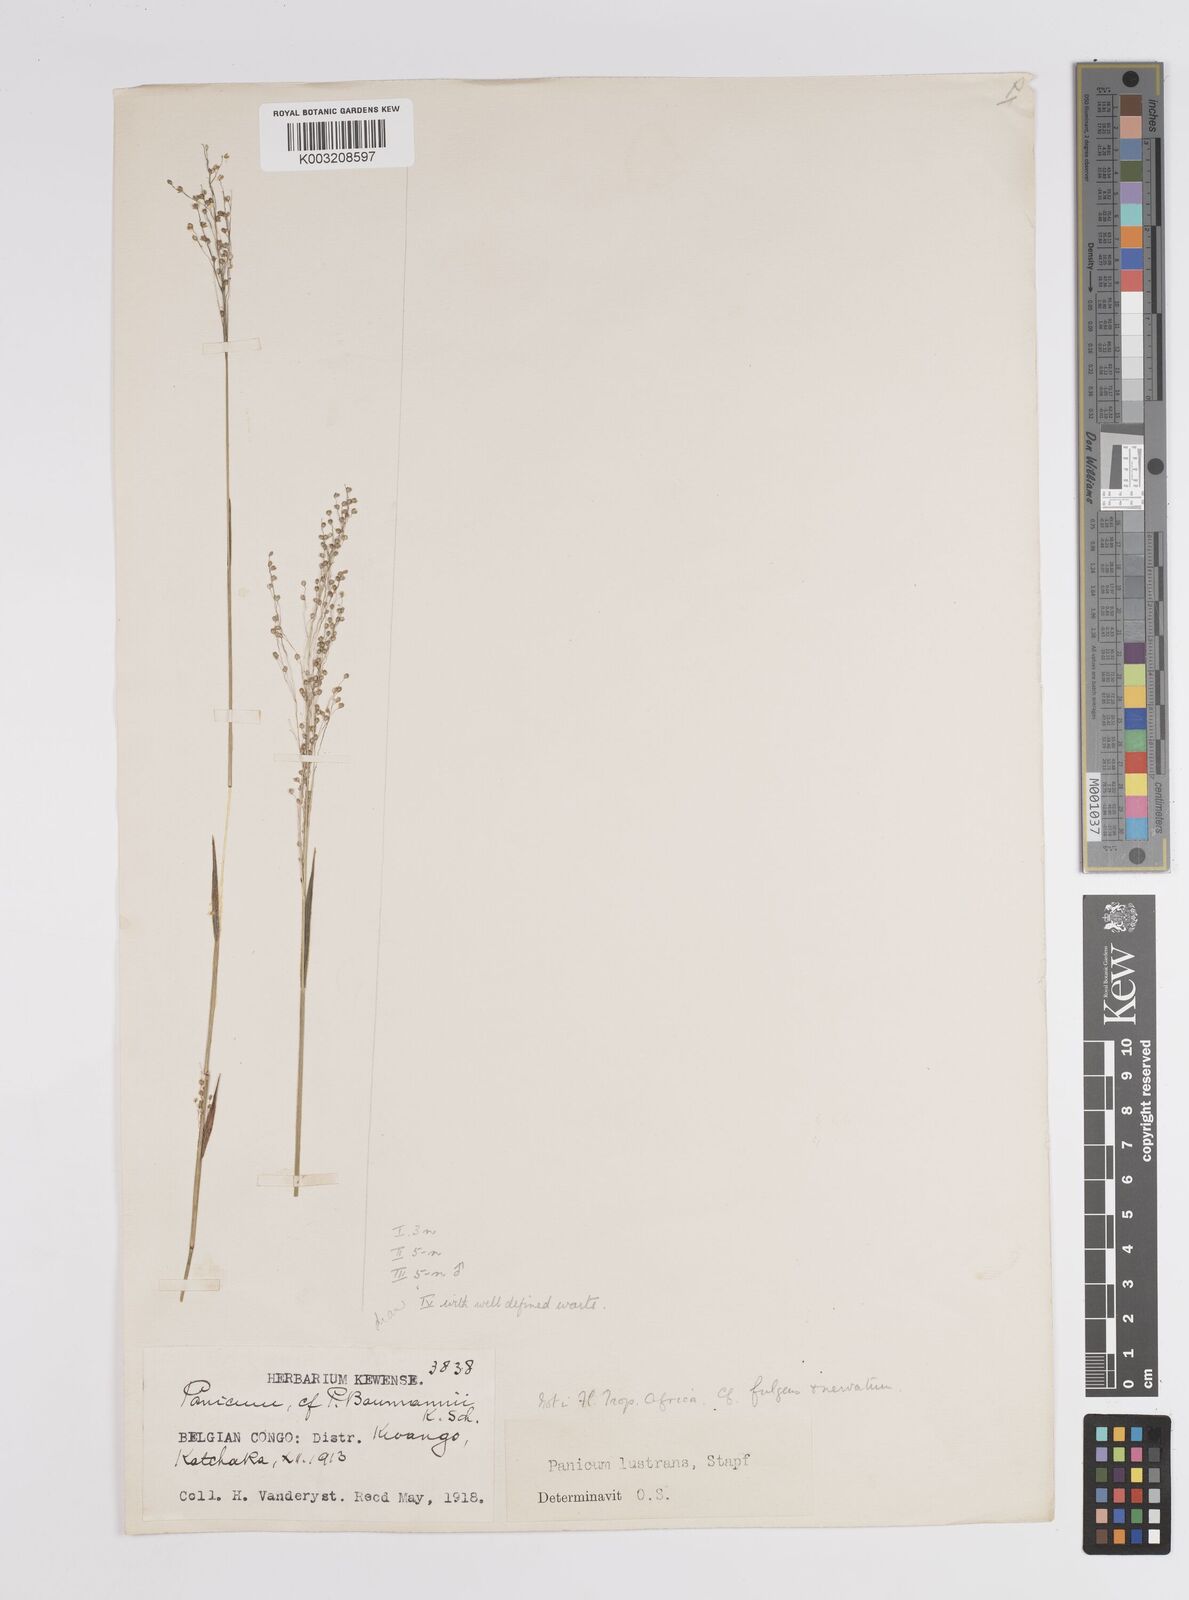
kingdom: Plantae
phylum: Tracheophyta
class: Liliopsida
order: Poales
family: Poaceae
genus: Trichanthecium
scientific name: Trichanthecium nervatum
